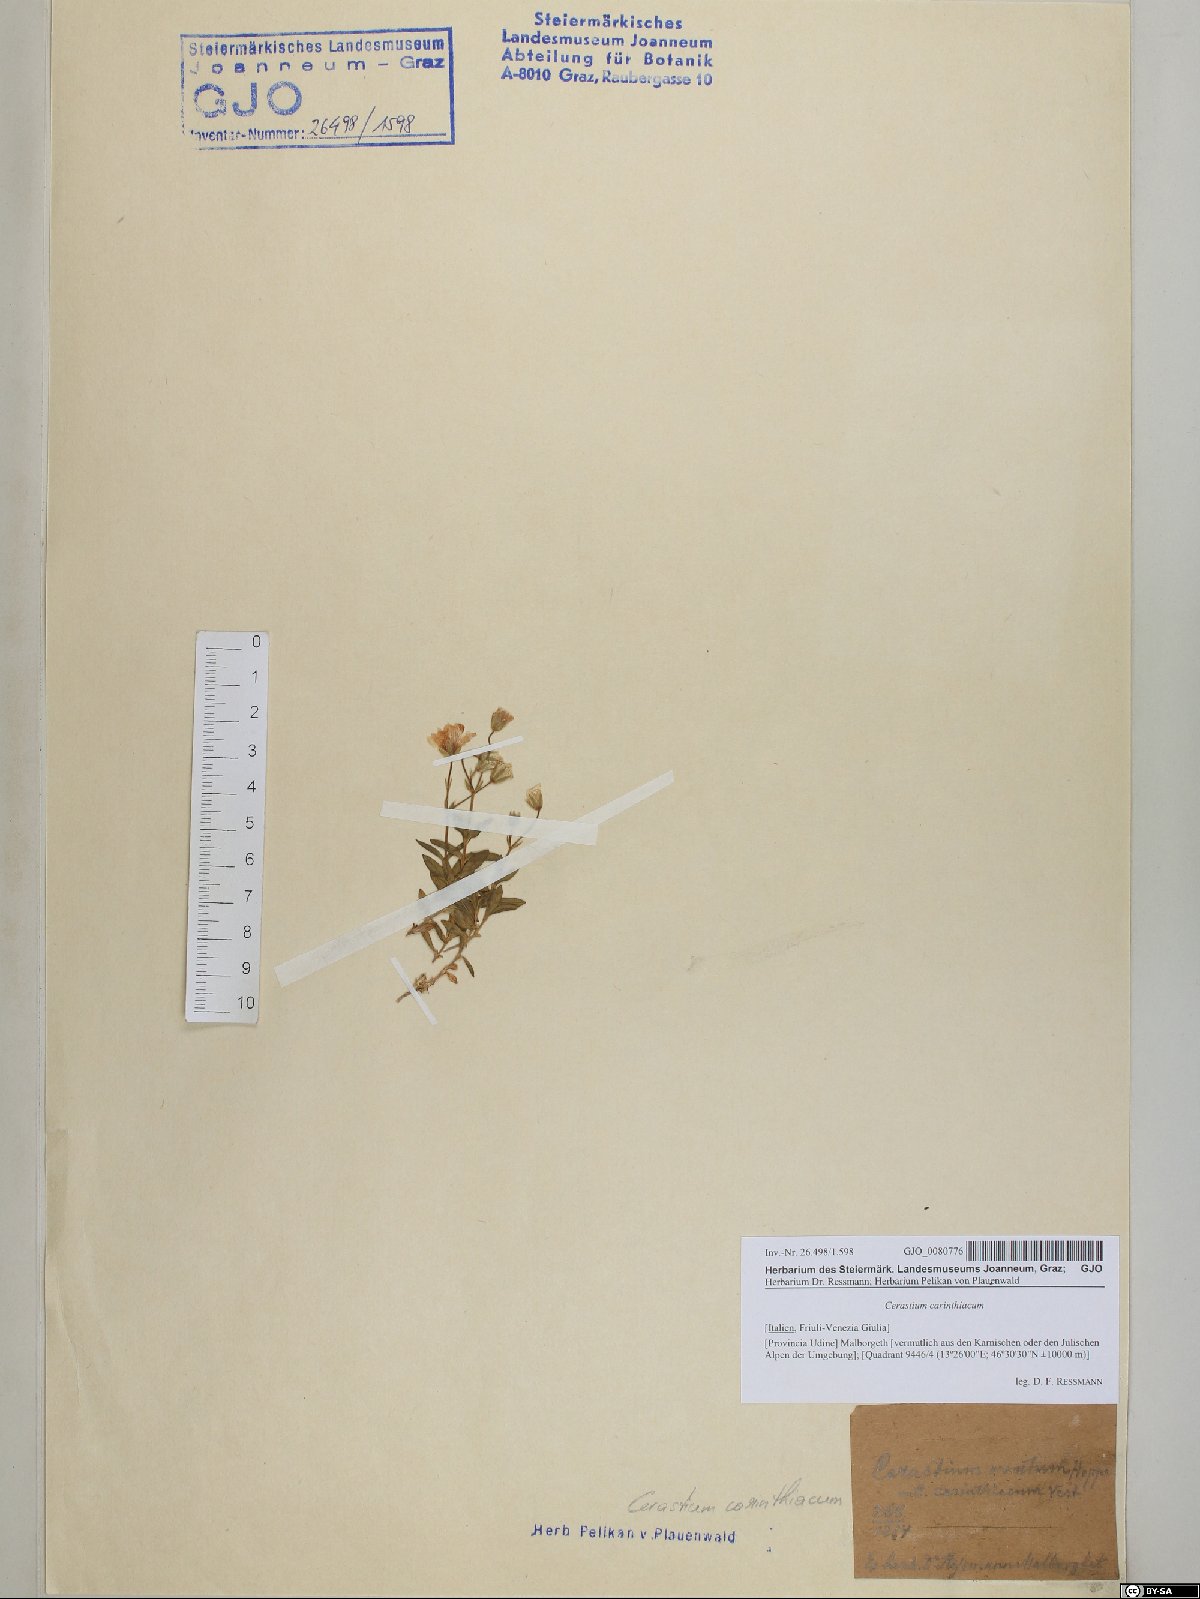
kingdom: Plantae
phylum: Tracheophyta
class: Magnoliopsida
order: Caryophyllales
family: Caryophyllaceae
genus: Cerastium
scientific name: Cerastium carinthiacum
